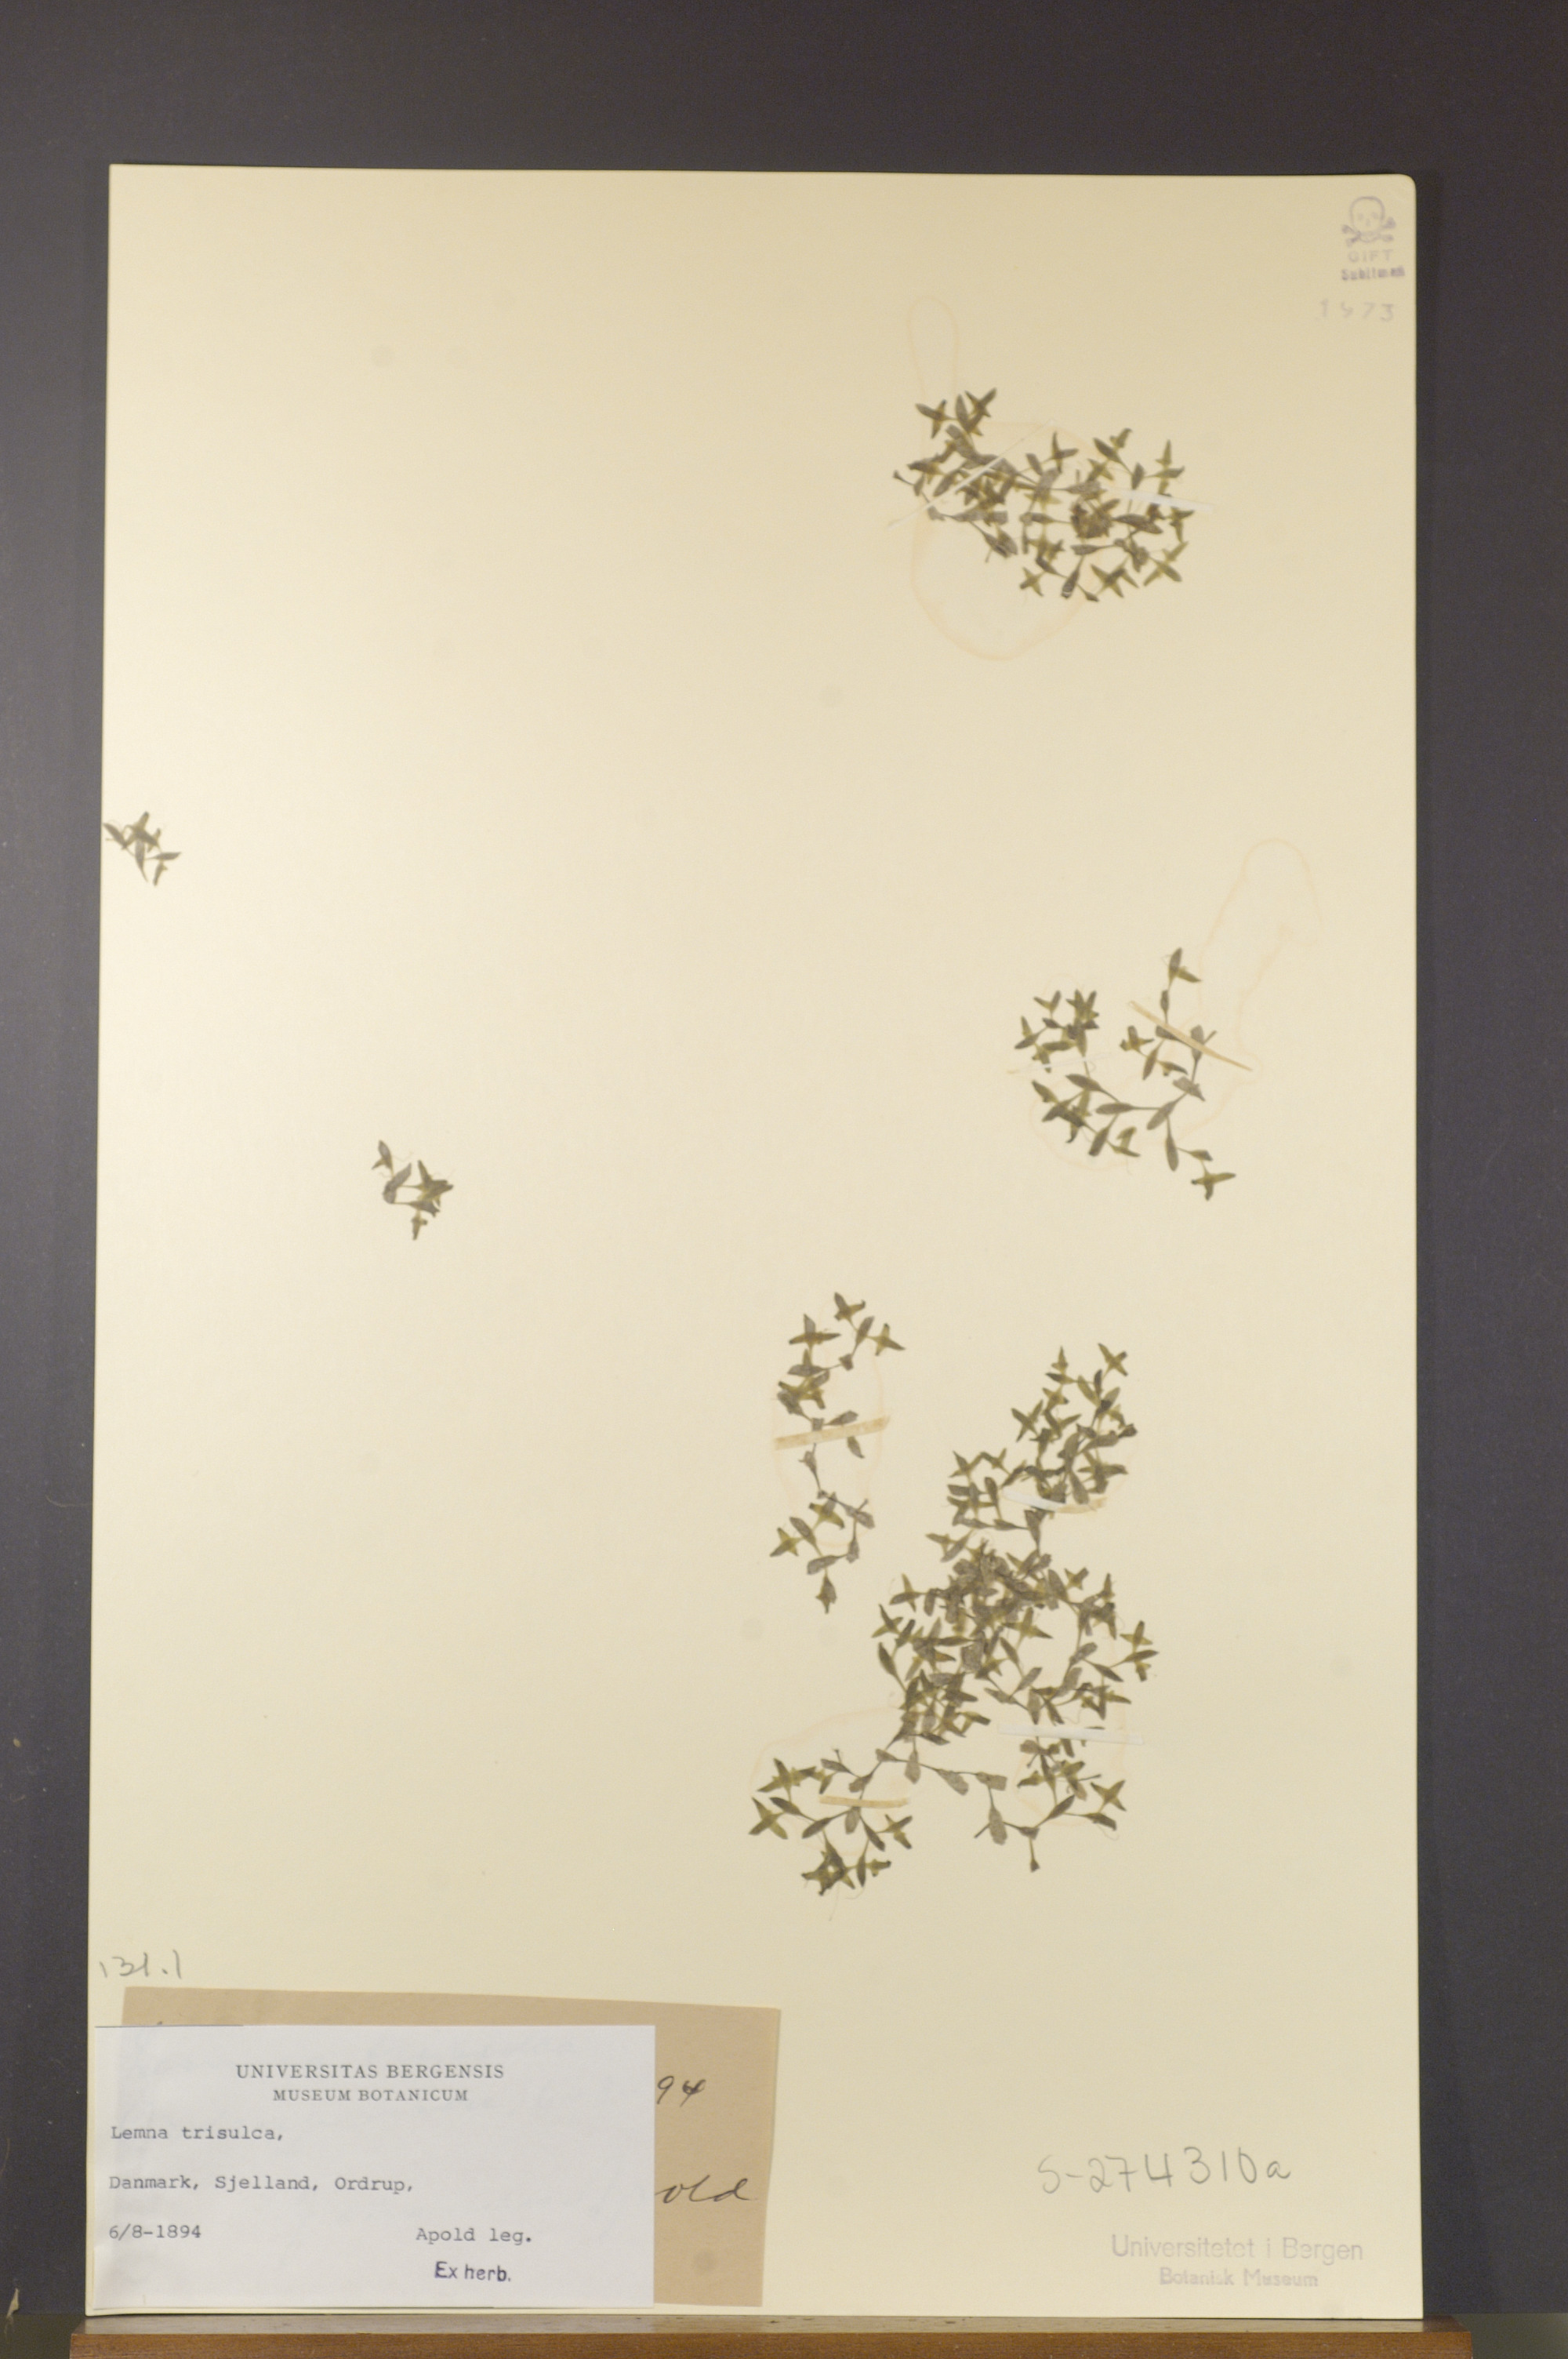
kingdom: Plantae
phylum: Tracheophyta
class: Liliopsida
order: Alismatales
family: Araceae
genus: Lemna
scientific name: Lemna trisulca
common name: Ivy-leaved duckweed
